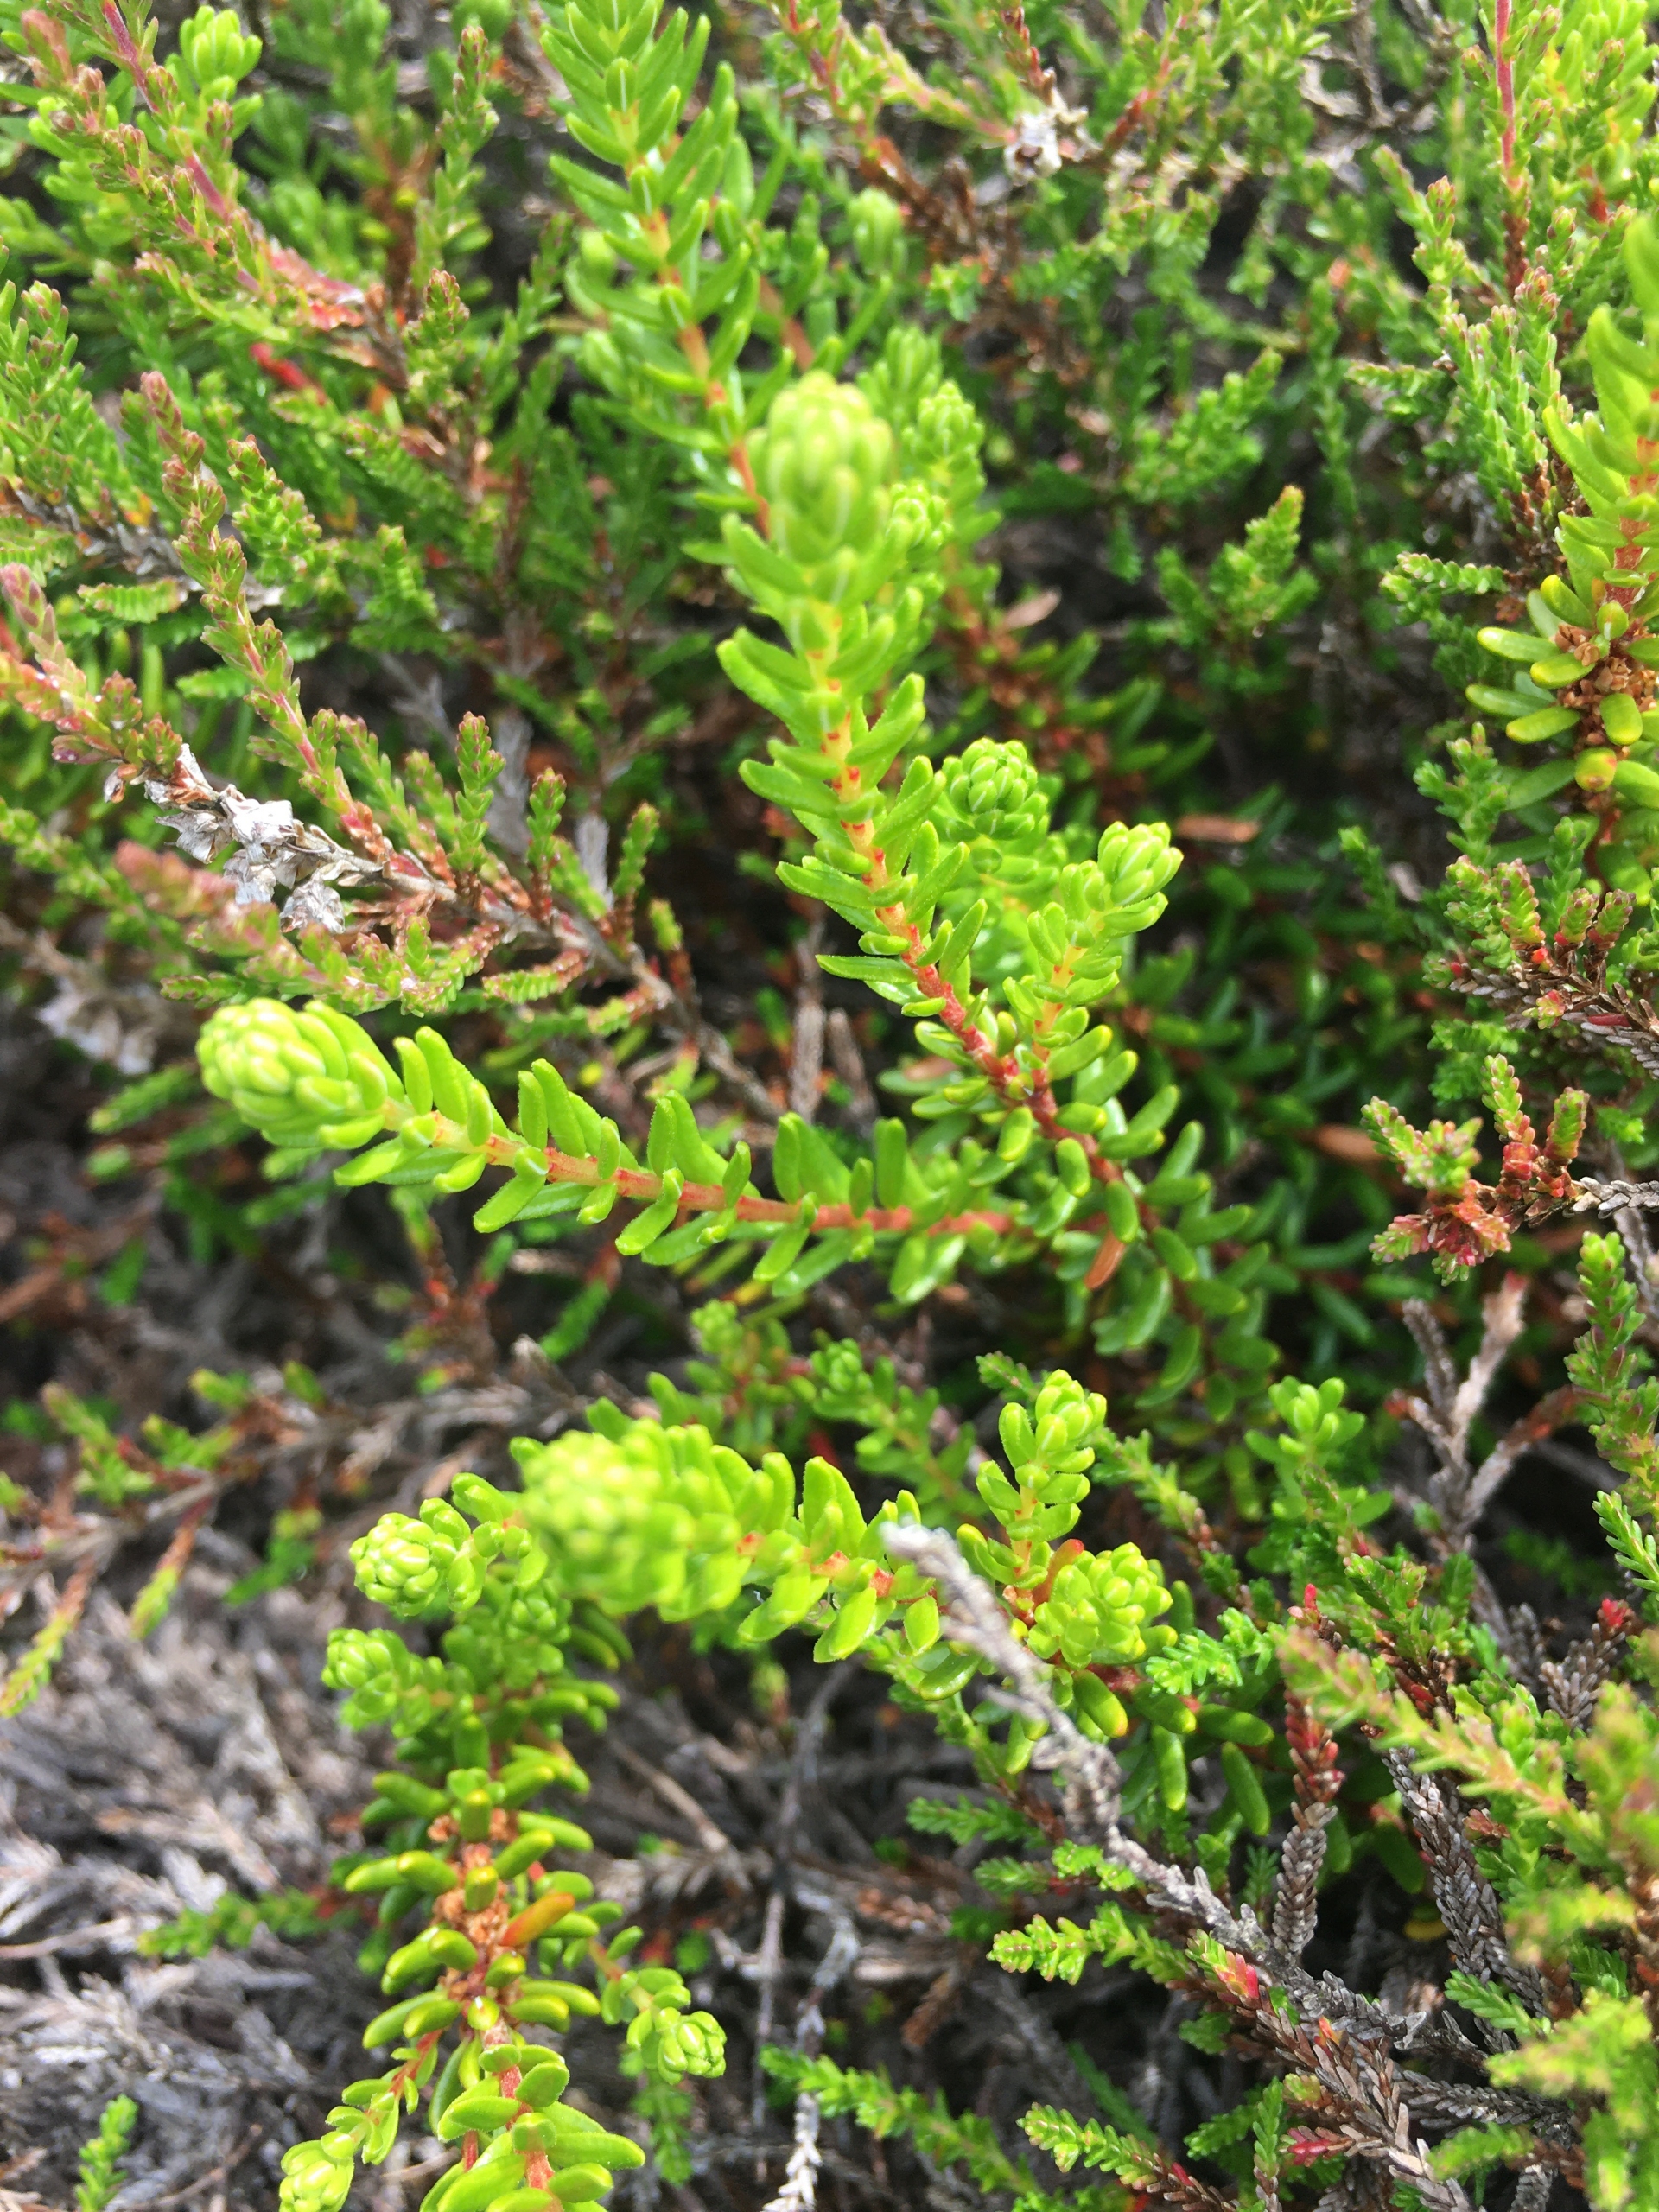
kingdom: Plantae
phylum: Tracheophyta
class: Magnoliopsida
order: Ericales
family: Ericaceae
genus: Empetrum
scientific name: Empetrum nigrum
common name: Revling
